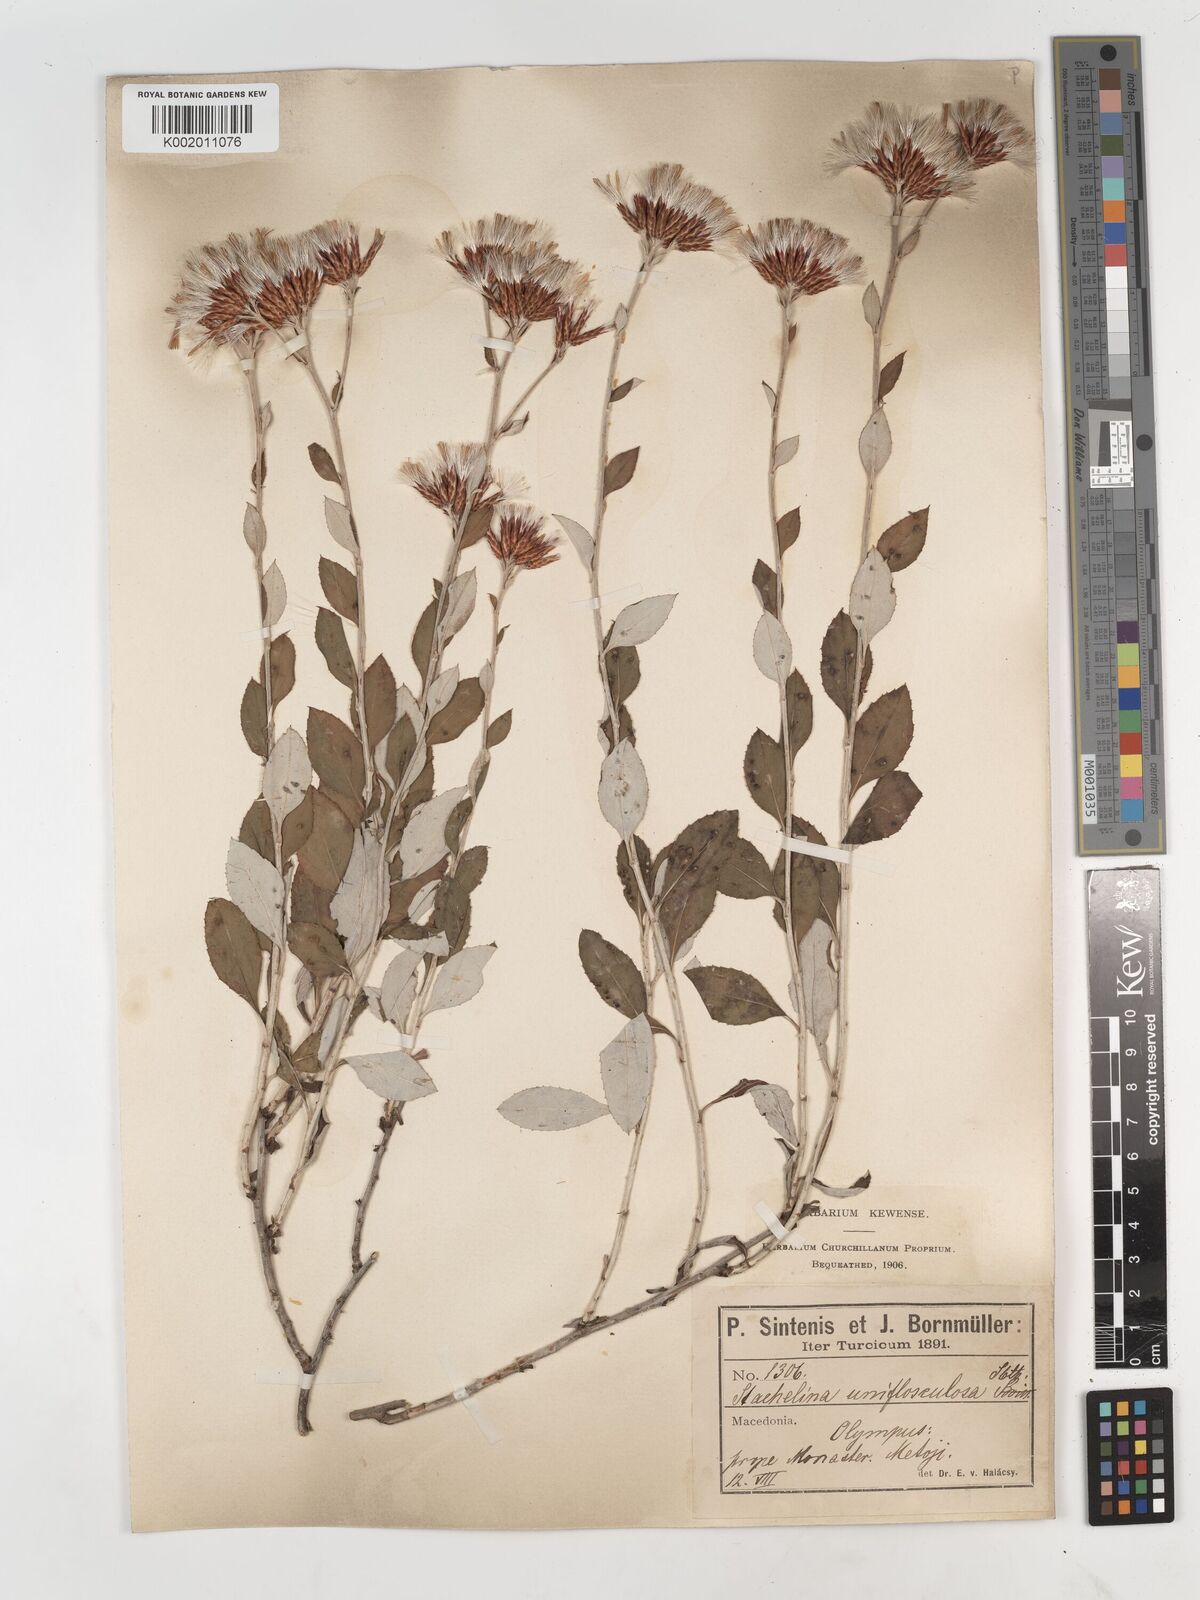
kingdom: Plantae
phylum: Tracheophyta
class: Magnoliopsida
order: Asterales
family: Asteraceae
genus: Staehelina
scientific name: Staehelina uniflosculosa
